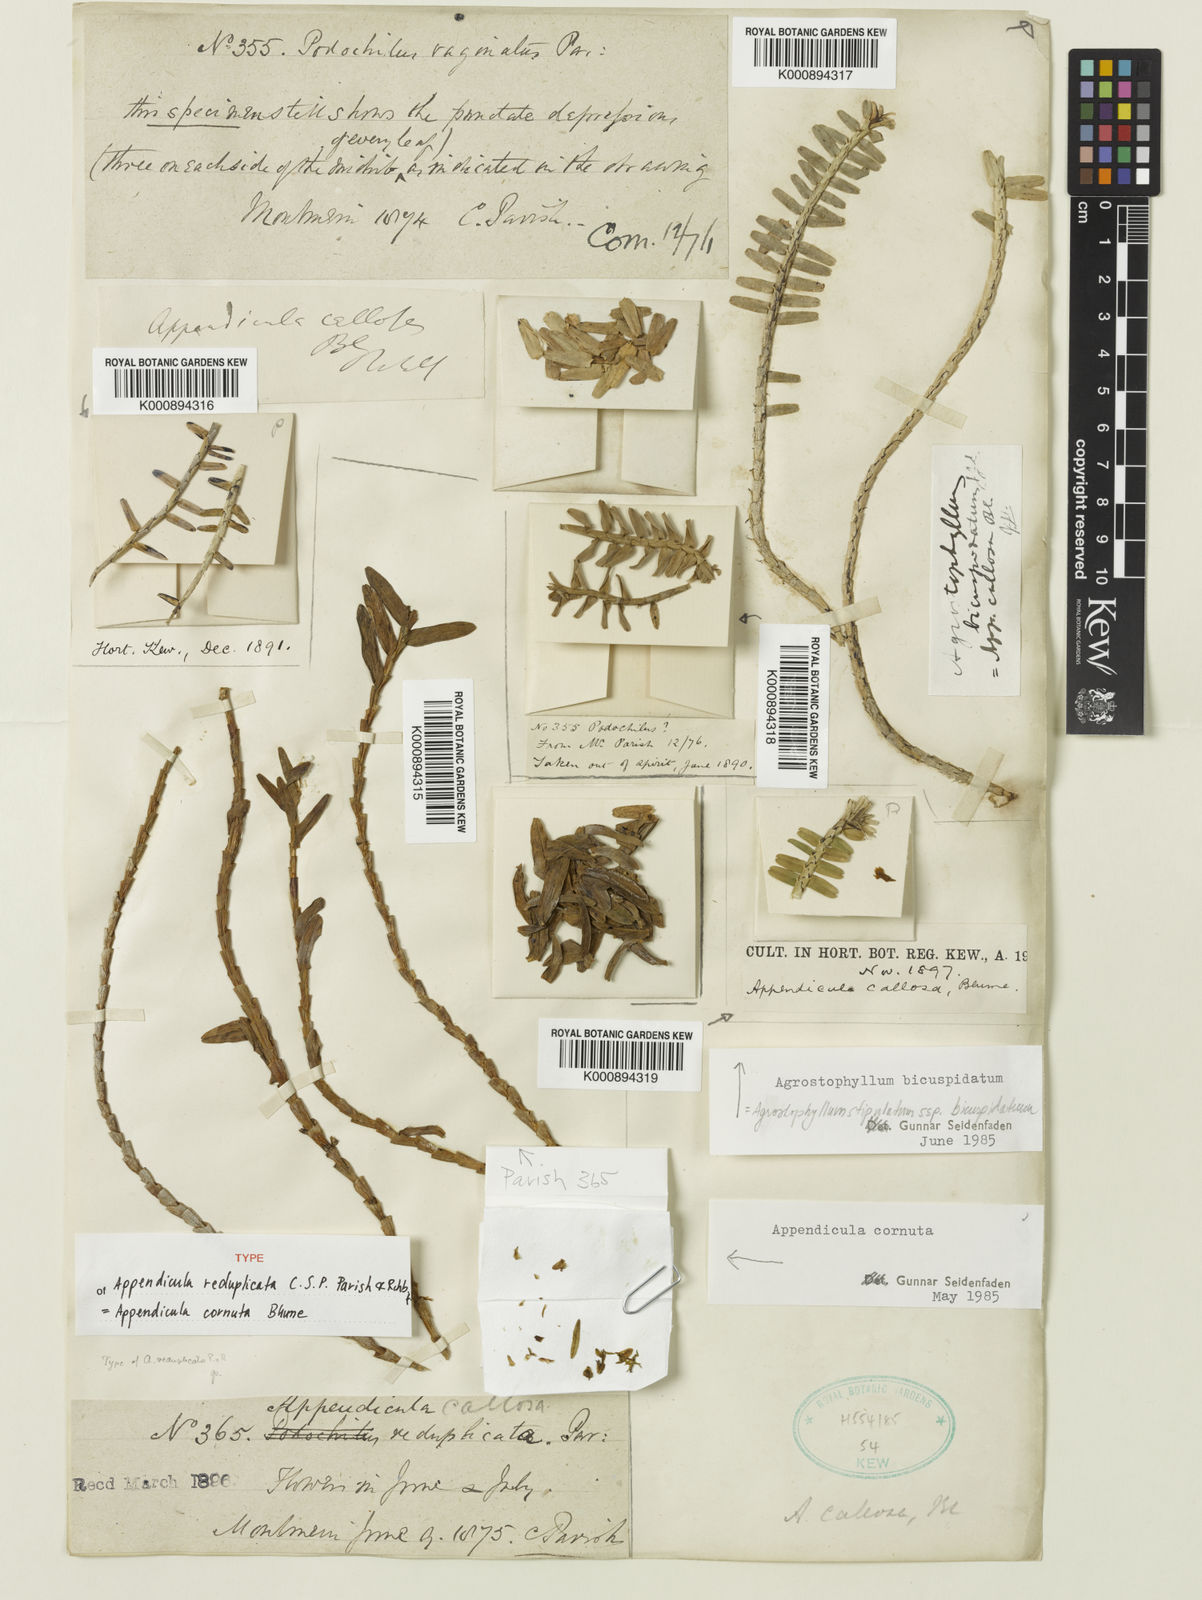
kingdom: Plantae
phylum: Tracheophyta
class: Liliopsida
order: Asparagales
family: Orchidaceae
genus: Appendicula
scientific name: Appendicula cornuta
